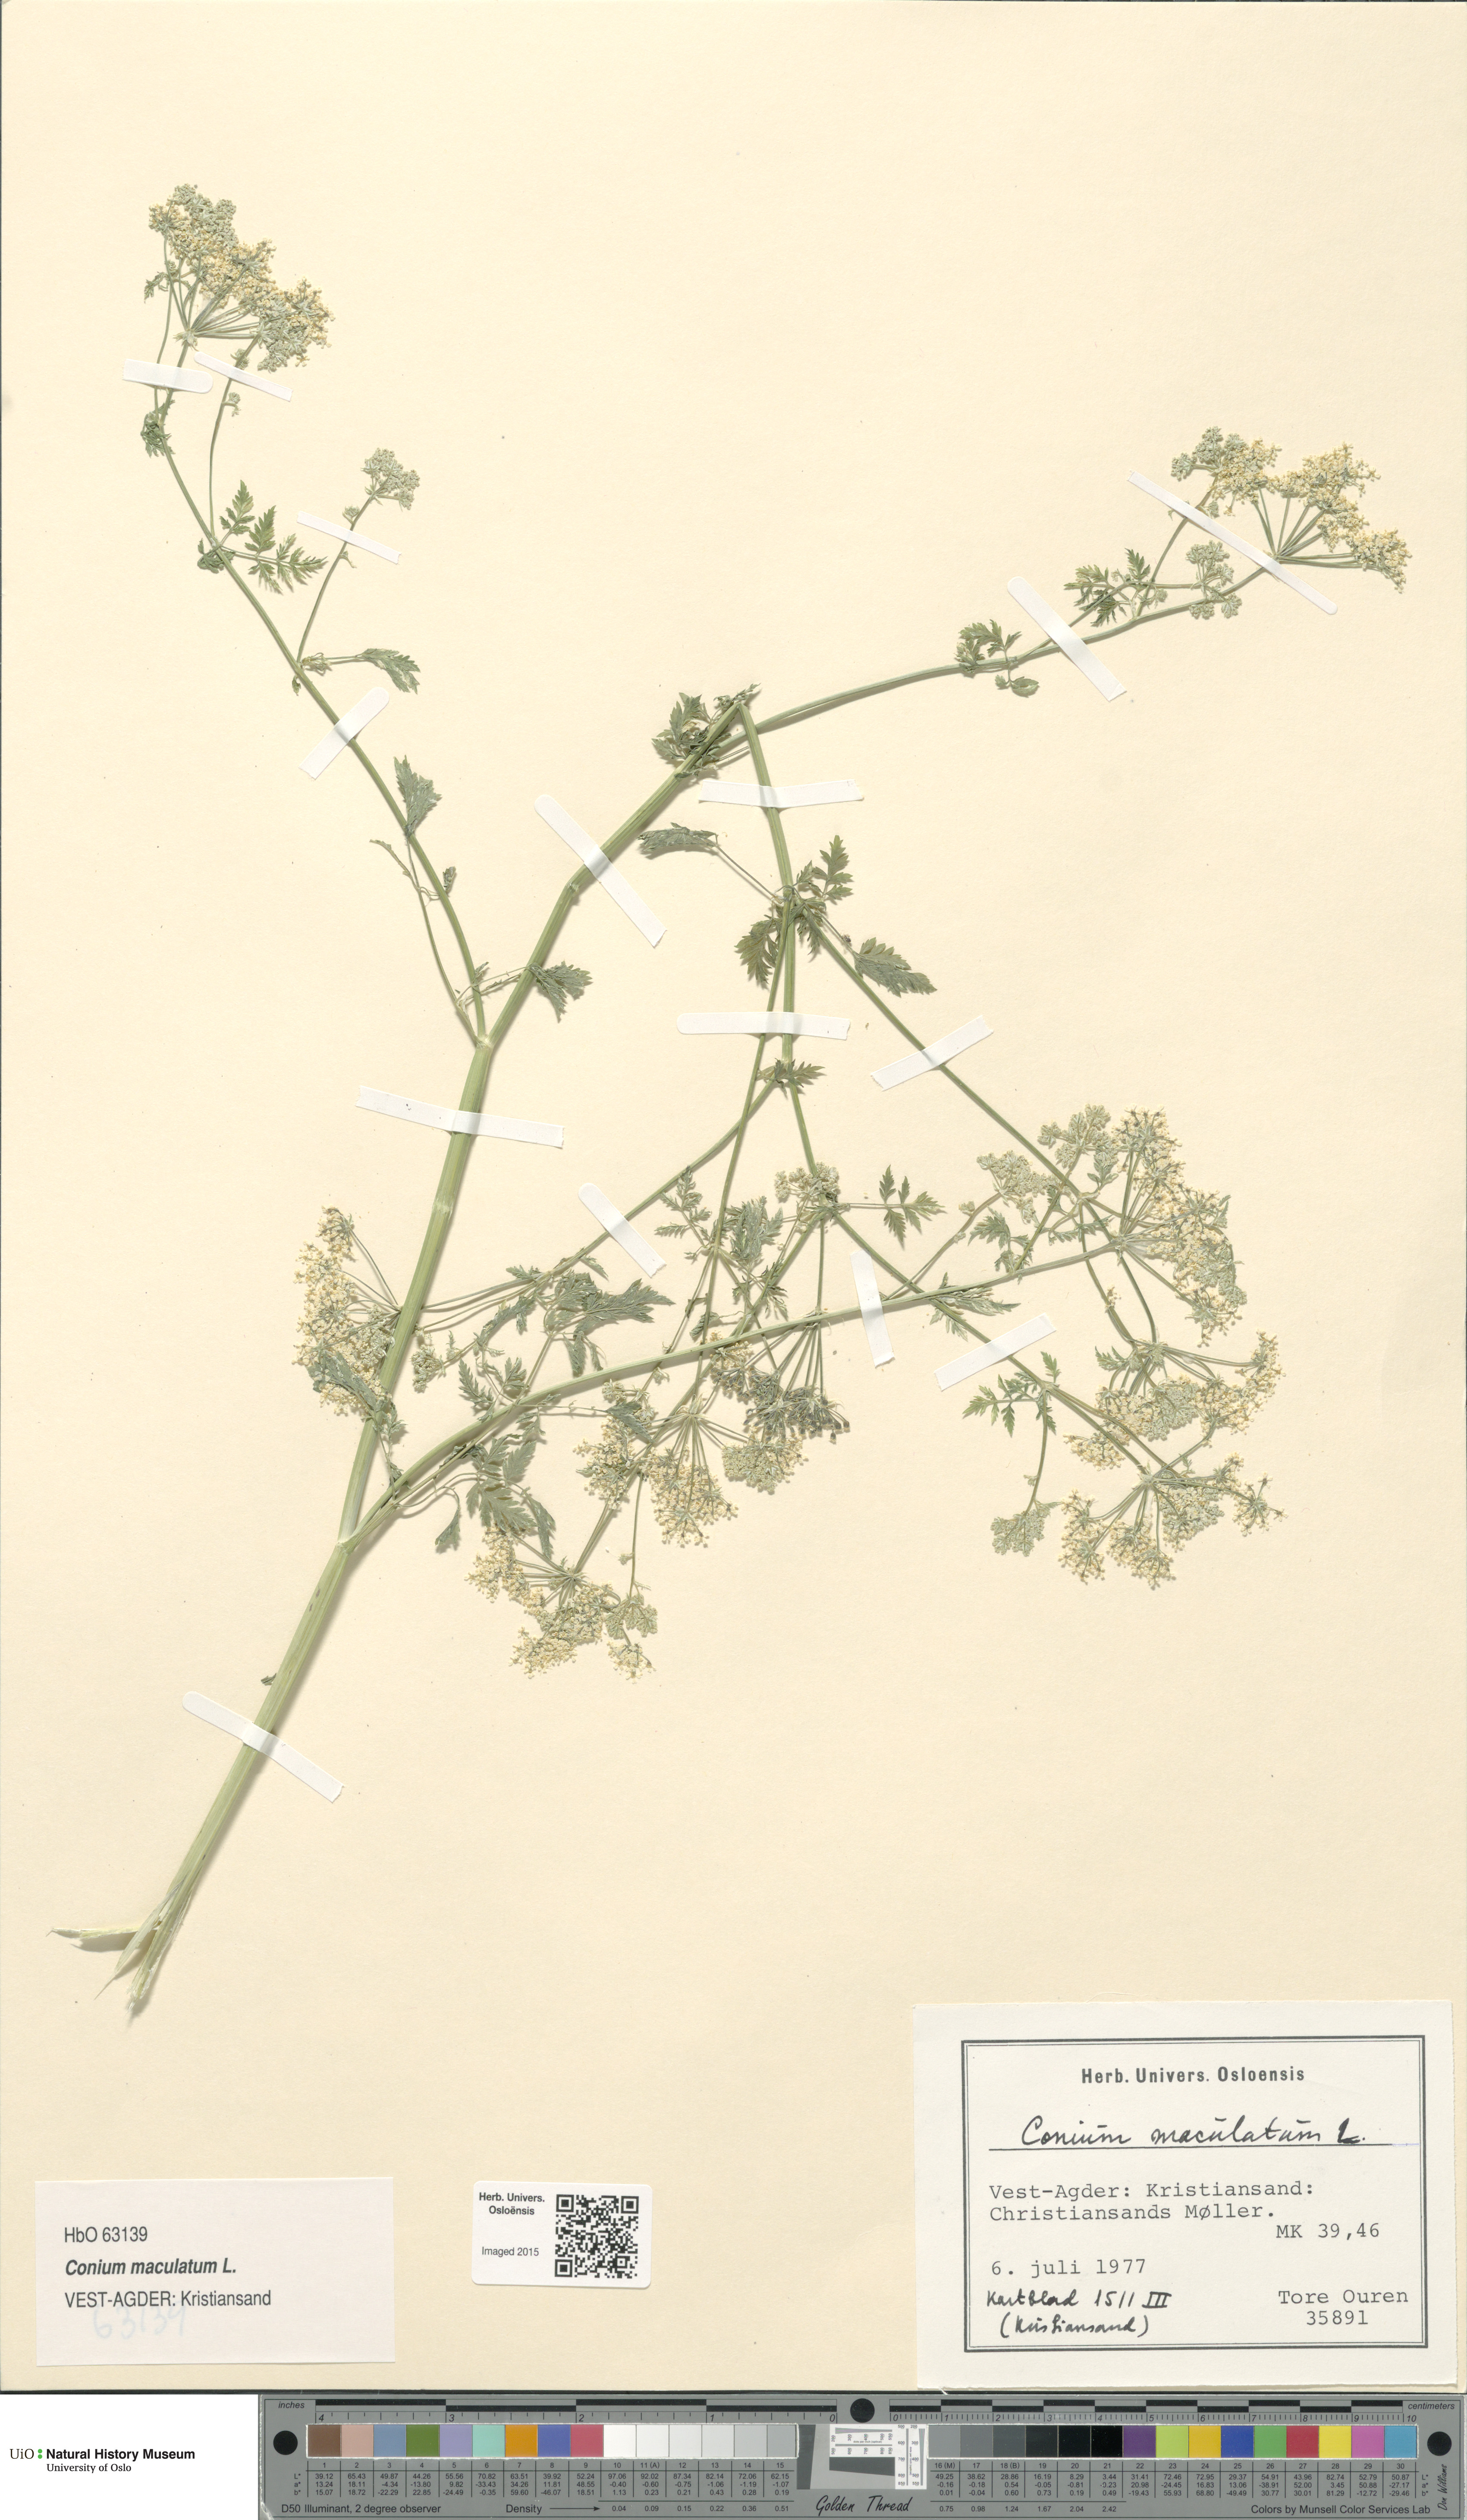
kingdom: Plantae
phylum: Tracheophyta
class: Magnoliopsida
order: Apiales
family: Apiaceae
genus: Conium
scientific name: Conium maculatum
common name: Hemlock
